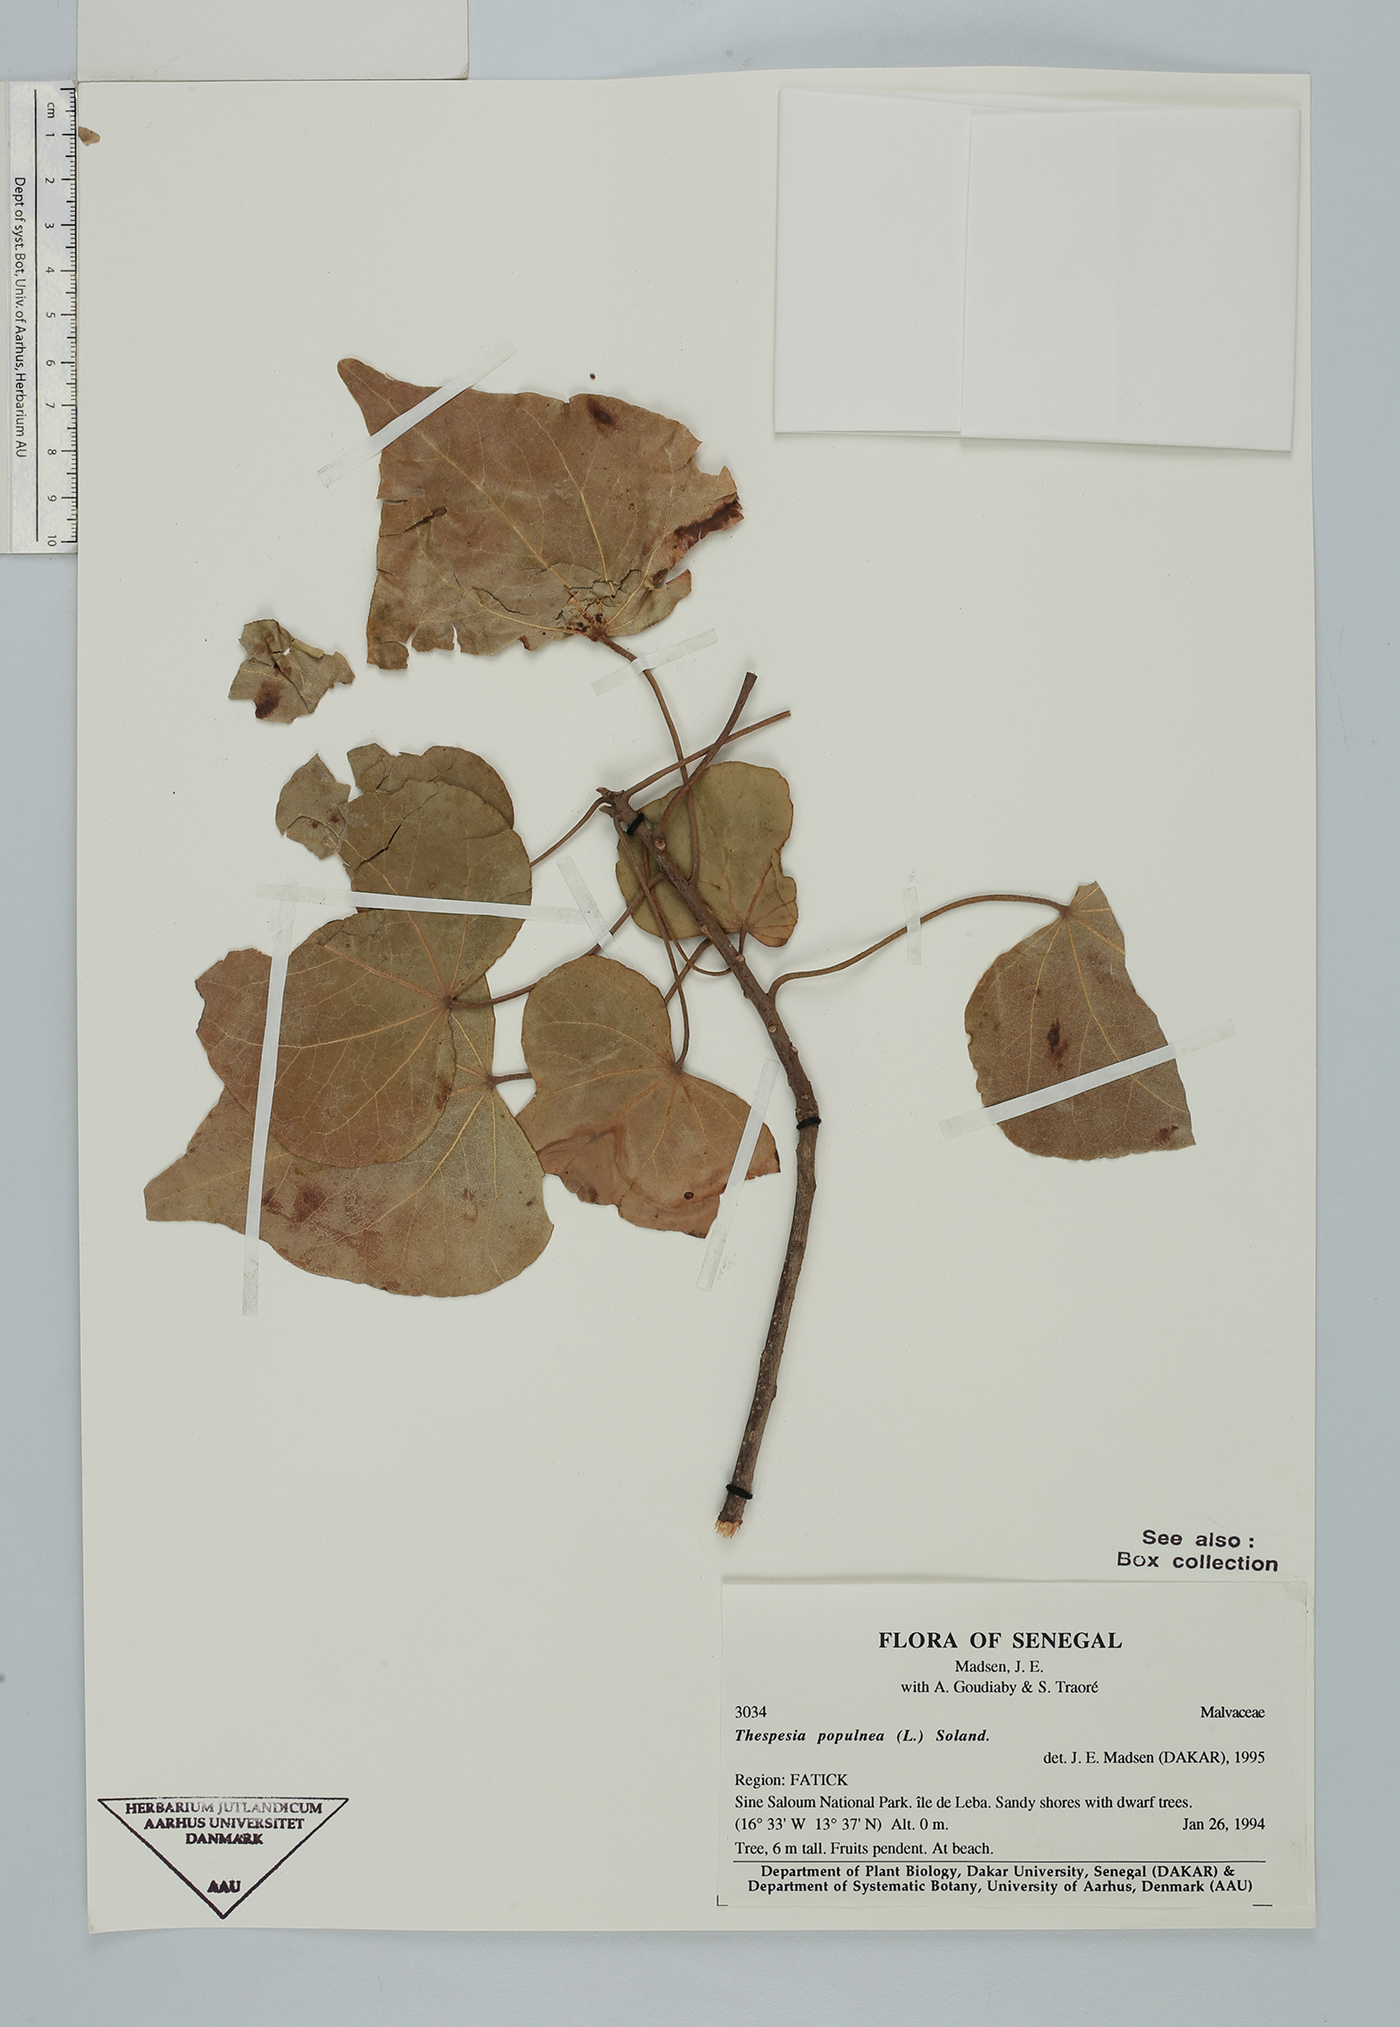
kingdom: Plantae
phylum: Tracheophyta
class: Magnoliopsida
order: Malvales
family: Malvaceae
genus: Thespesia
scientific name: Thespesia populnea
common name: Seaside mahoe
